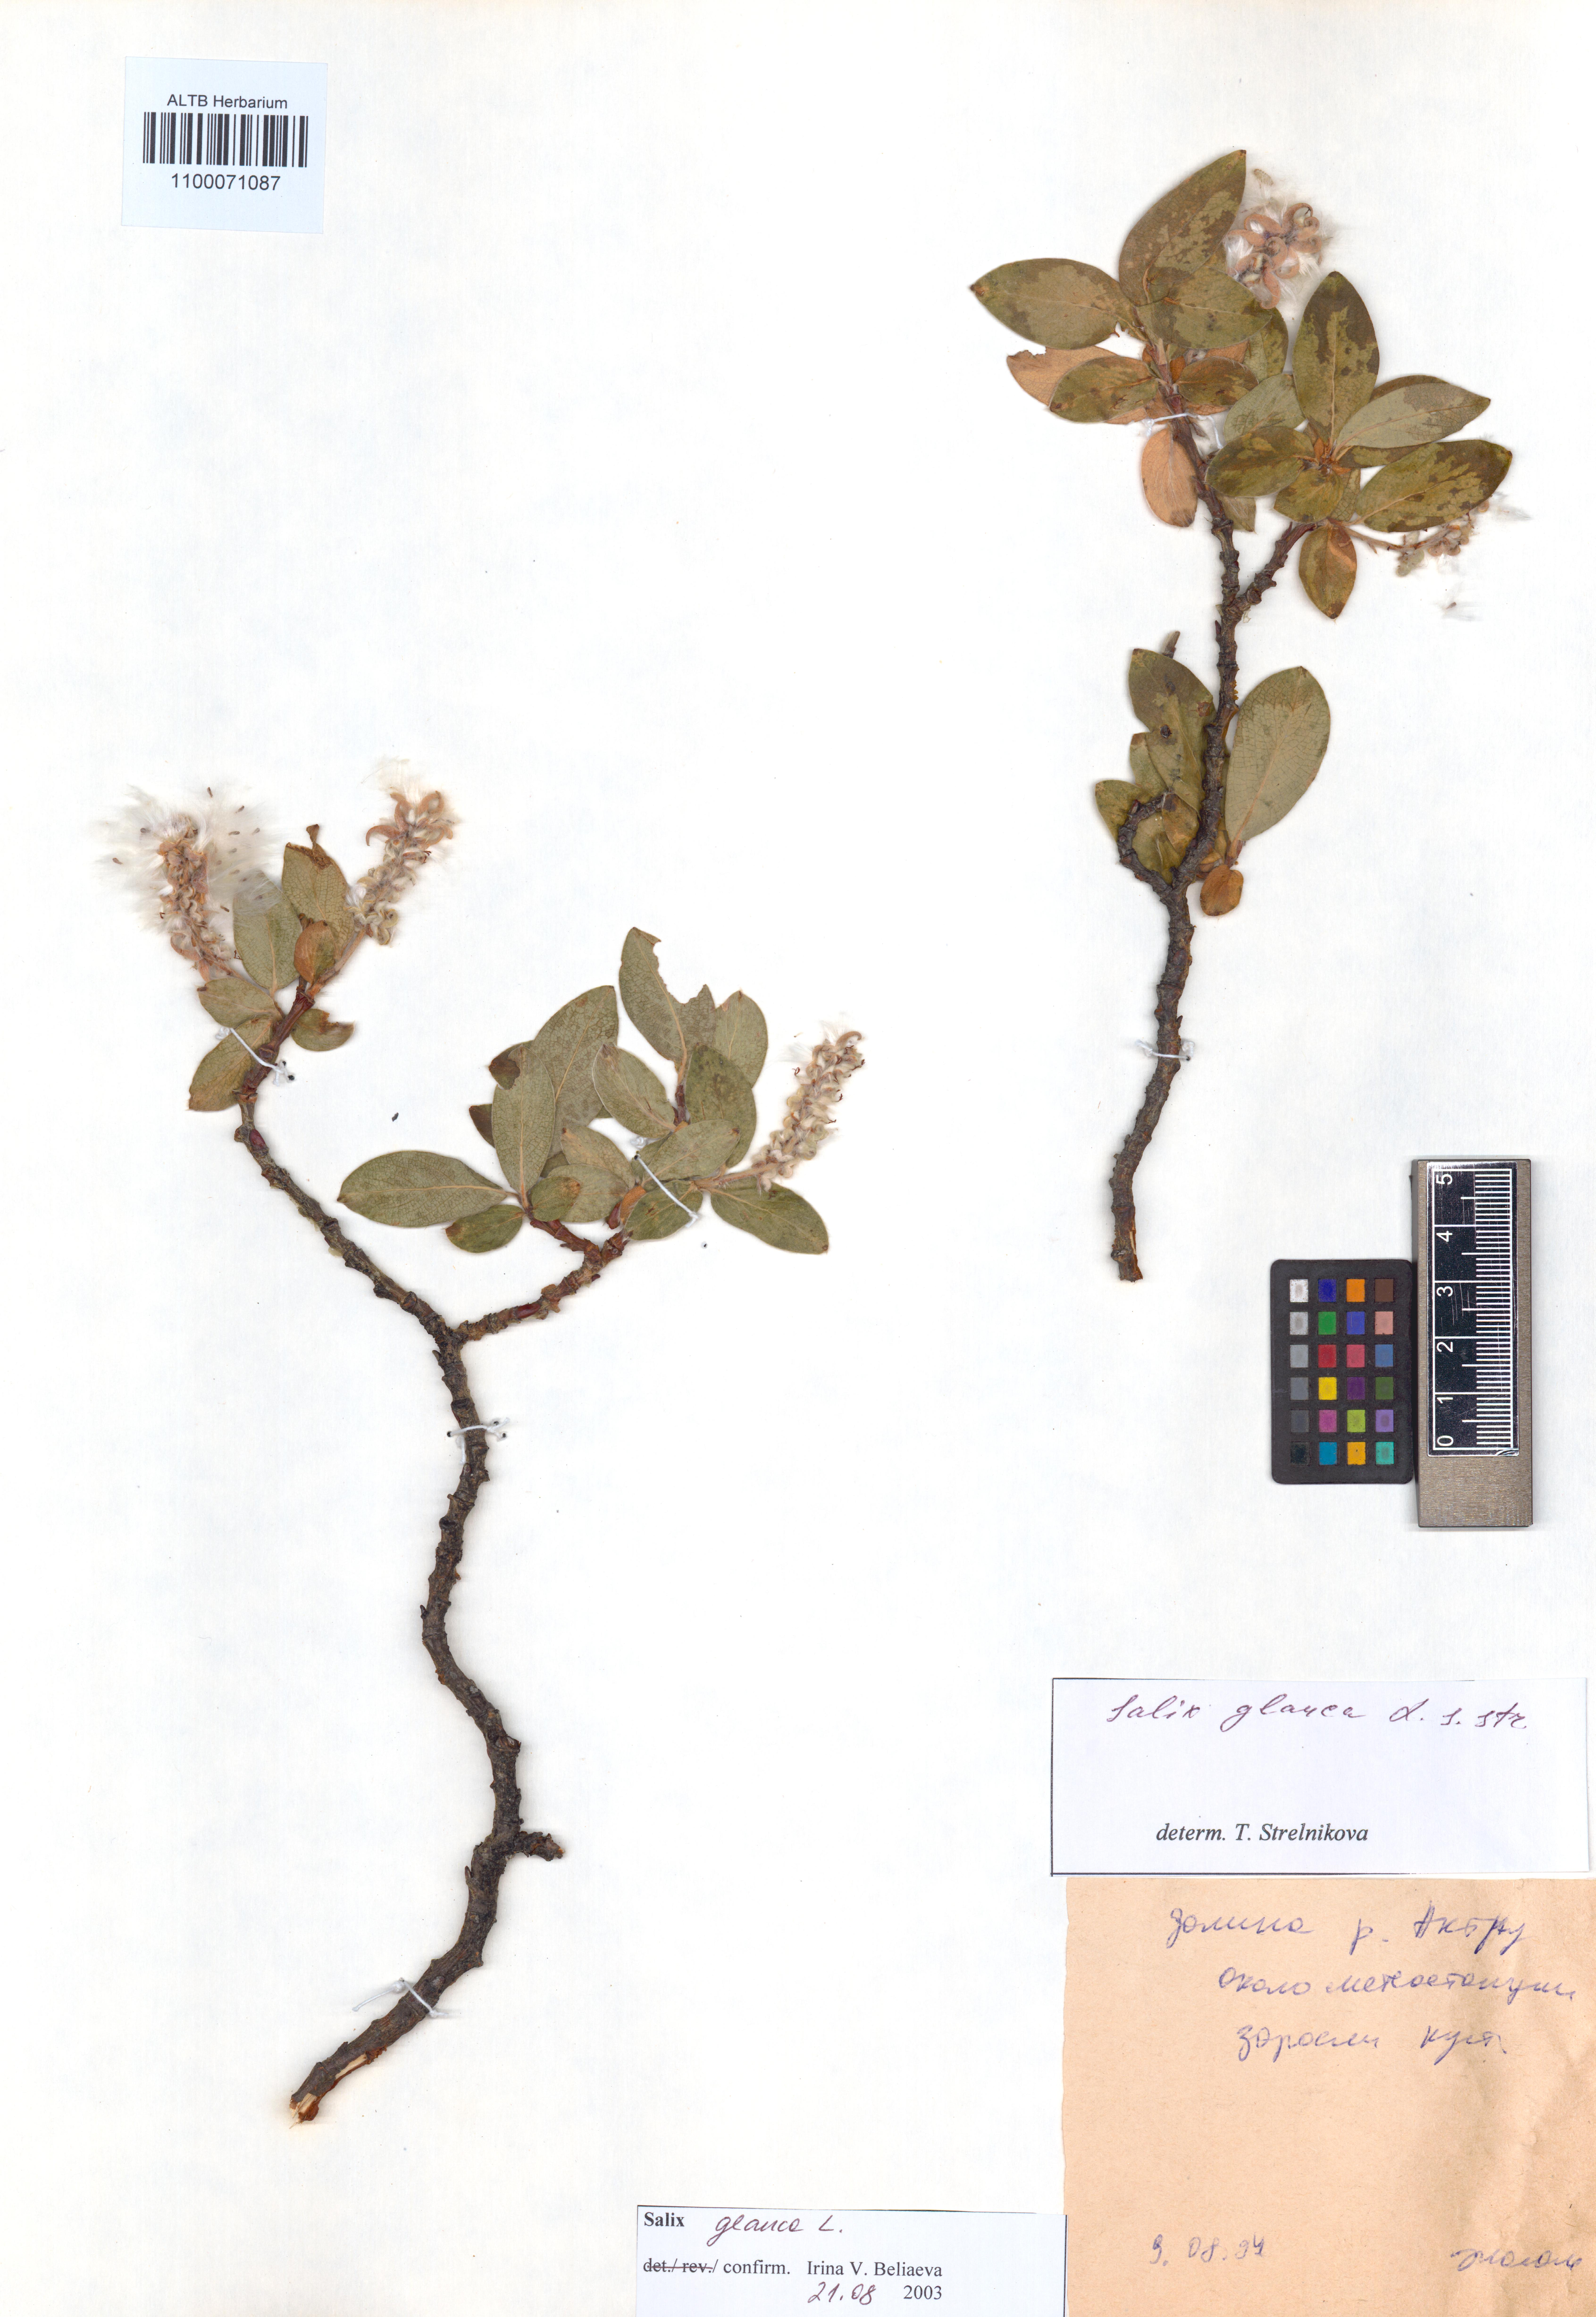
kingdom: Plantae
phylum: Tracheophyta
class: Magnoliopsida
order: Malpighiales
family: Salicaceae
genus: Salix
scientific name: Salix glauca
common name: Glaucous willow
